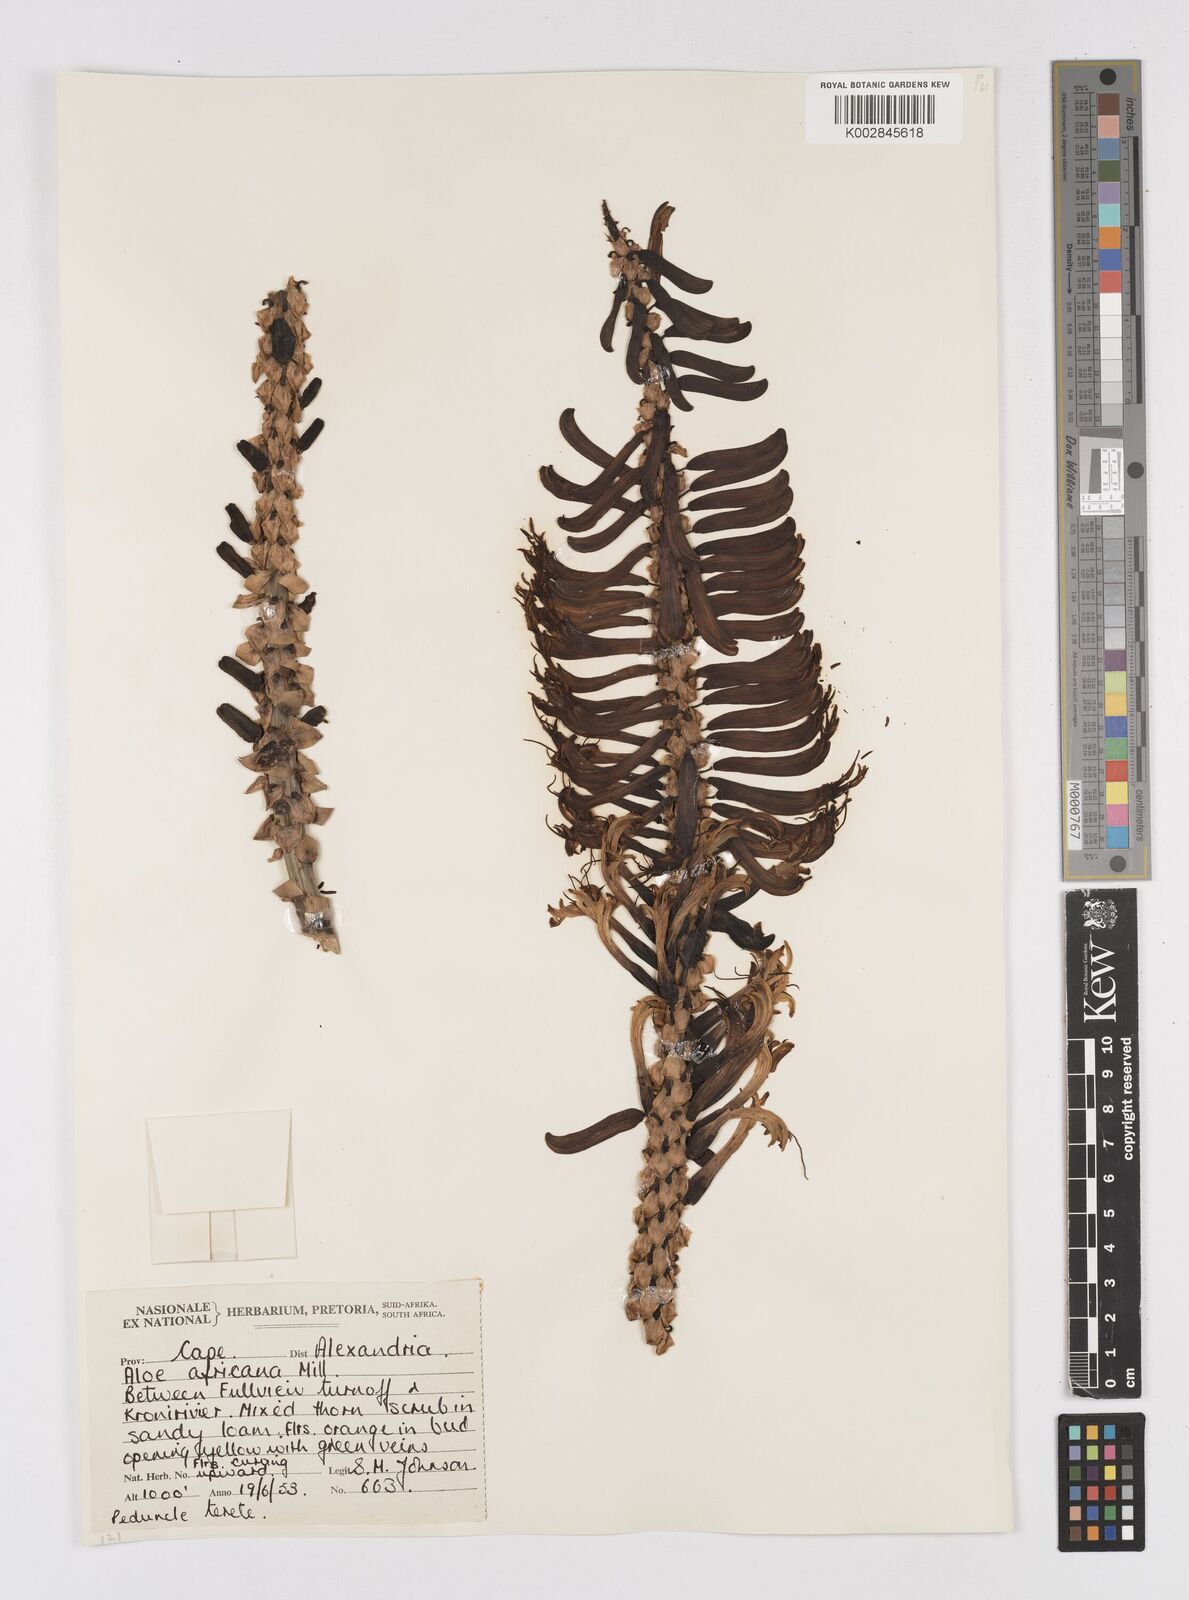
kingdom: Plantae
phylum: Tracheophyta
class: Liliopsida
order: Asparagales
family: Asphodelaceae
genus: Aloe
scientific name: Aloe africana
